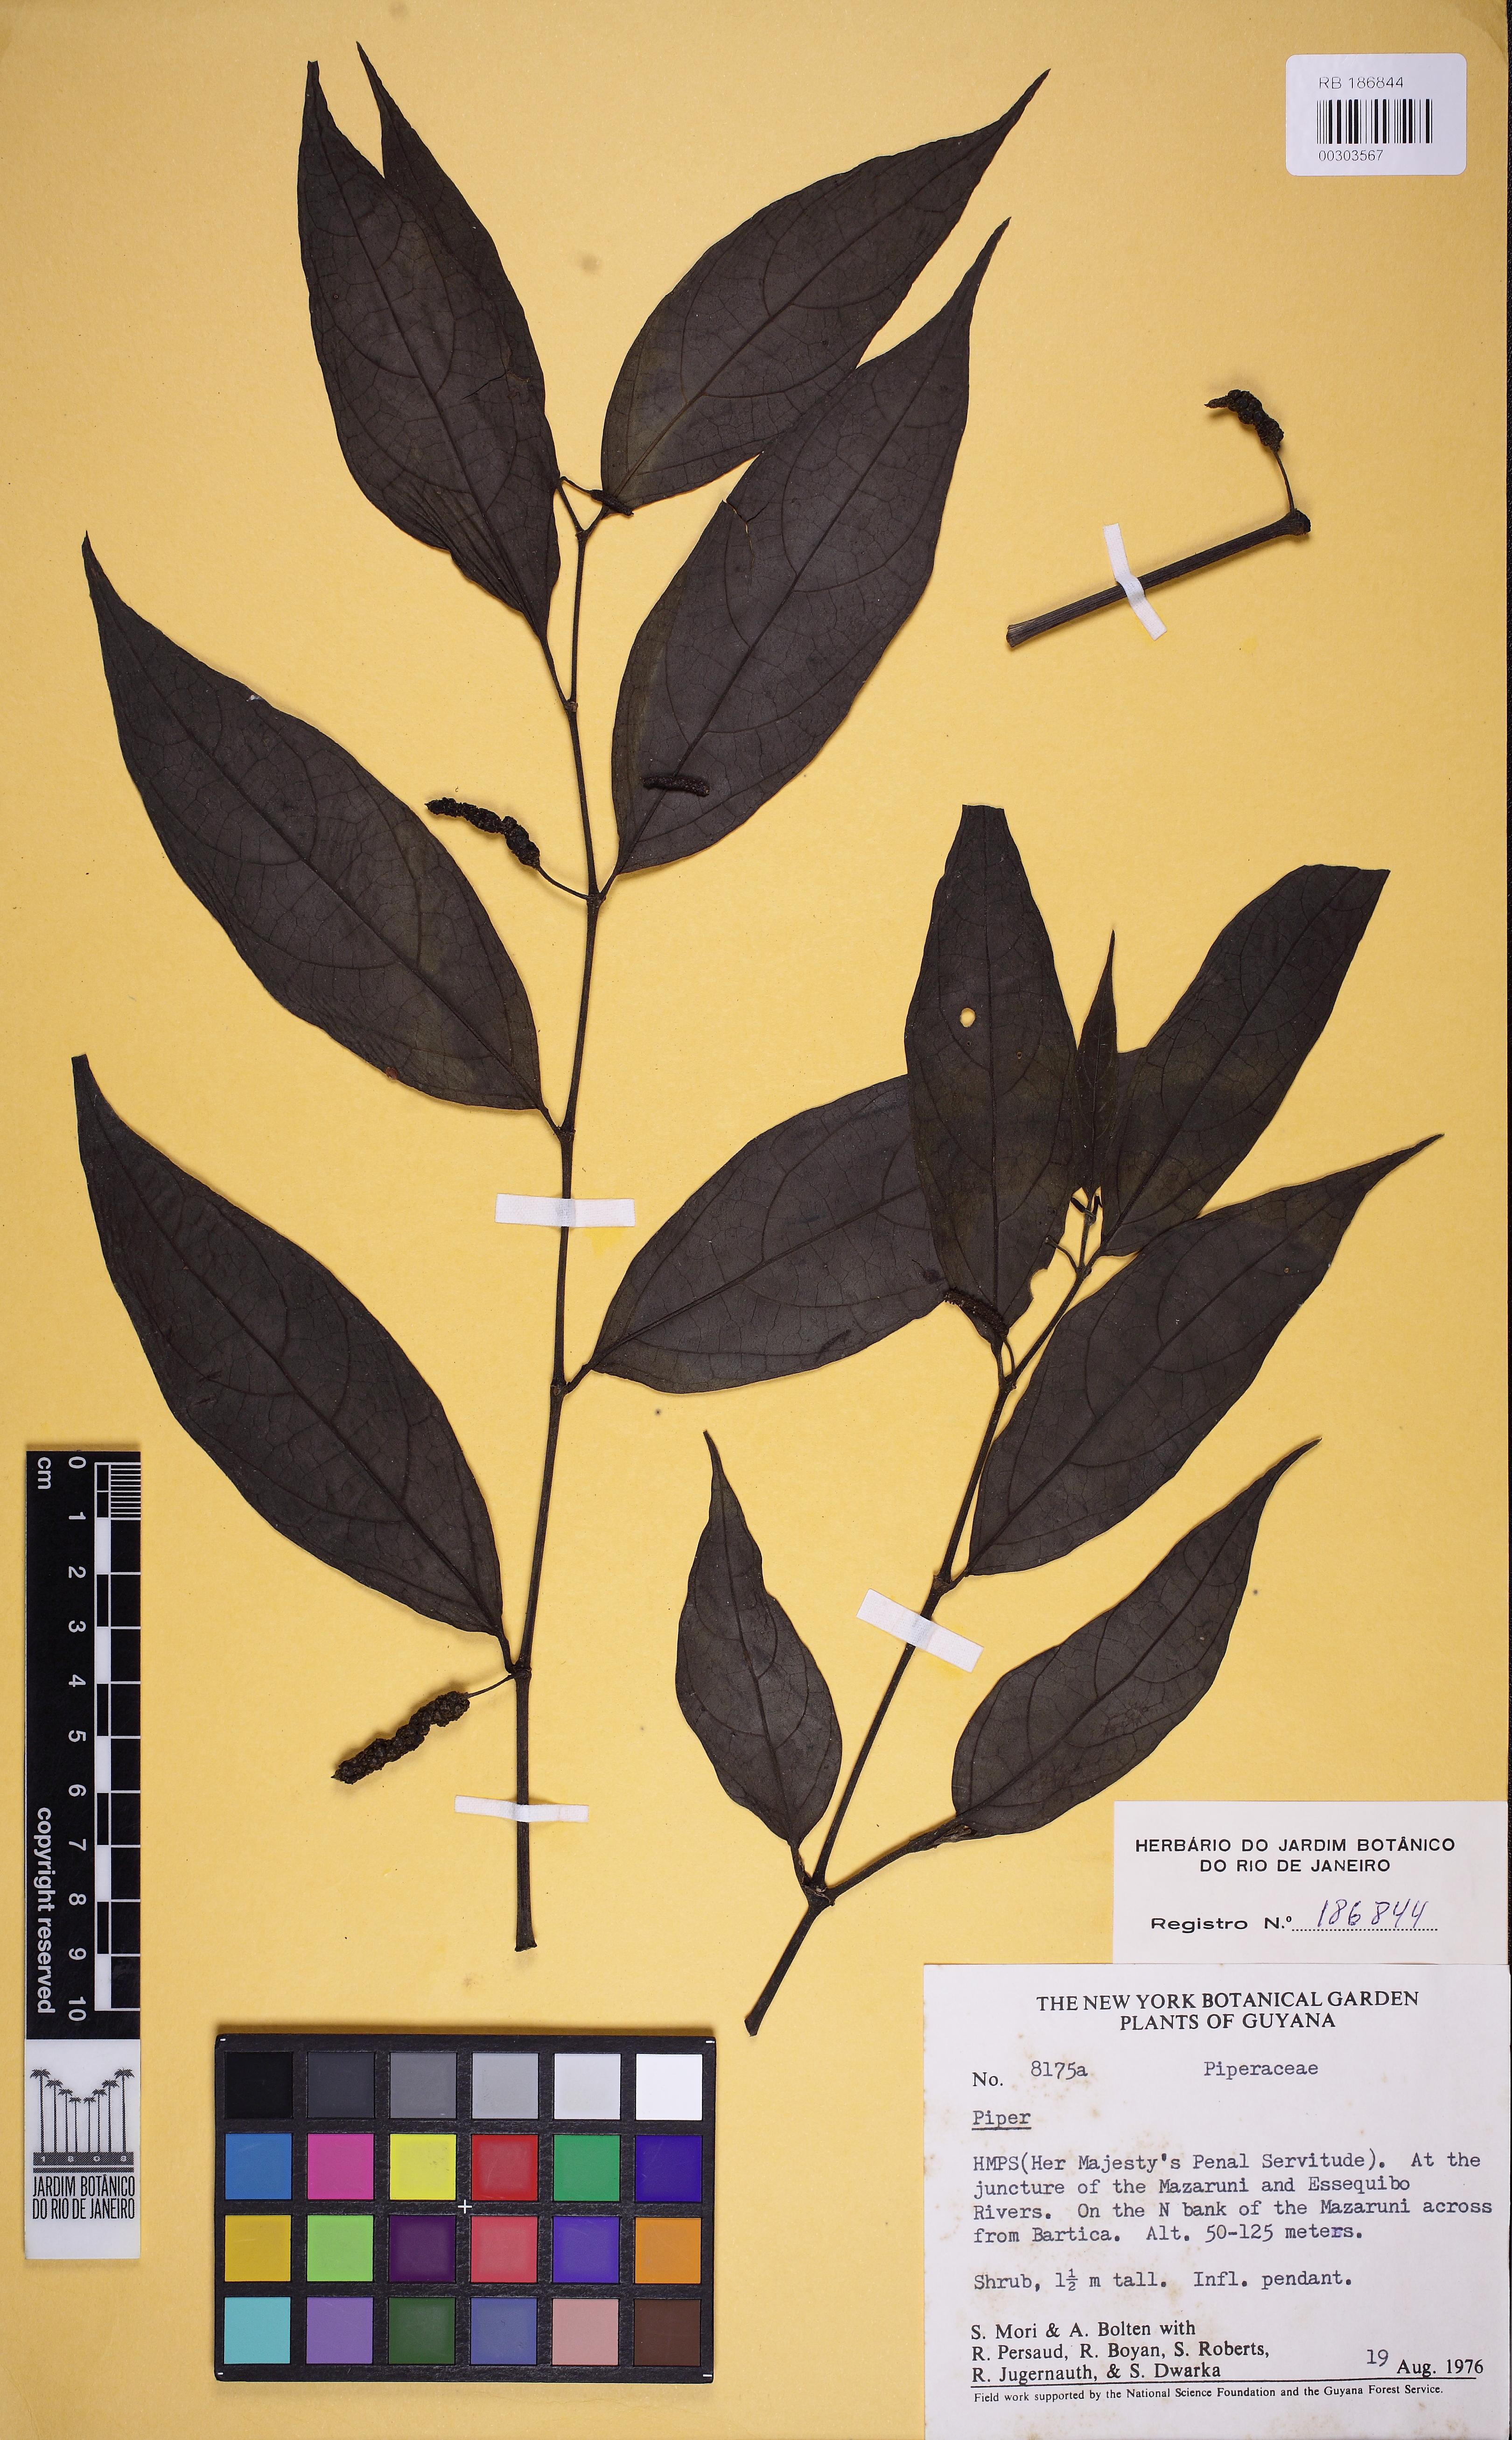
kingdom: Plantae
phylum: Tracheophyta
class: Magnoliopsida
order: Piperales
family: Piperaceae
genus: Piper
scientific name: Piper manausense
